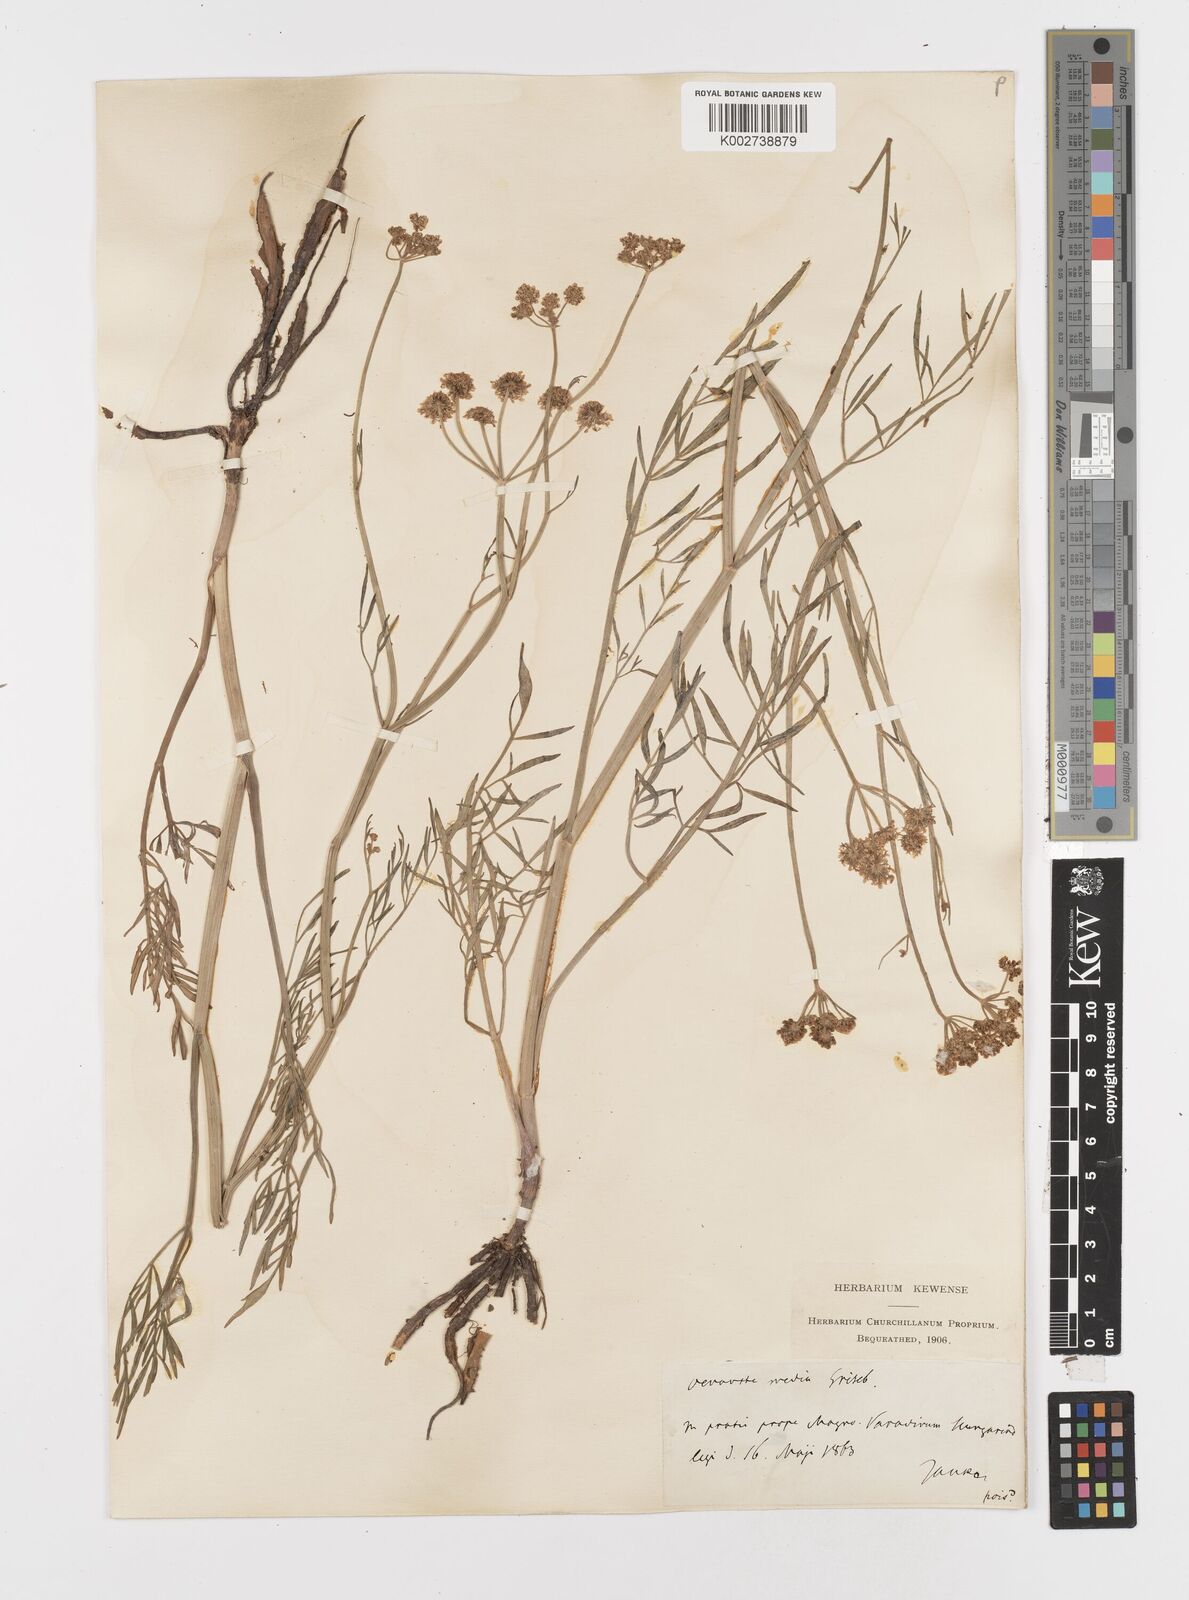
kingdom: Plantae
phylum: Tracheophyta
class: Magnoliopsida
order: Apiales
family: Apiaceae
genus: Oenanthe
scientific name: Oenanthe silaifolia
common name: Narrow-leaved water-dropwort
